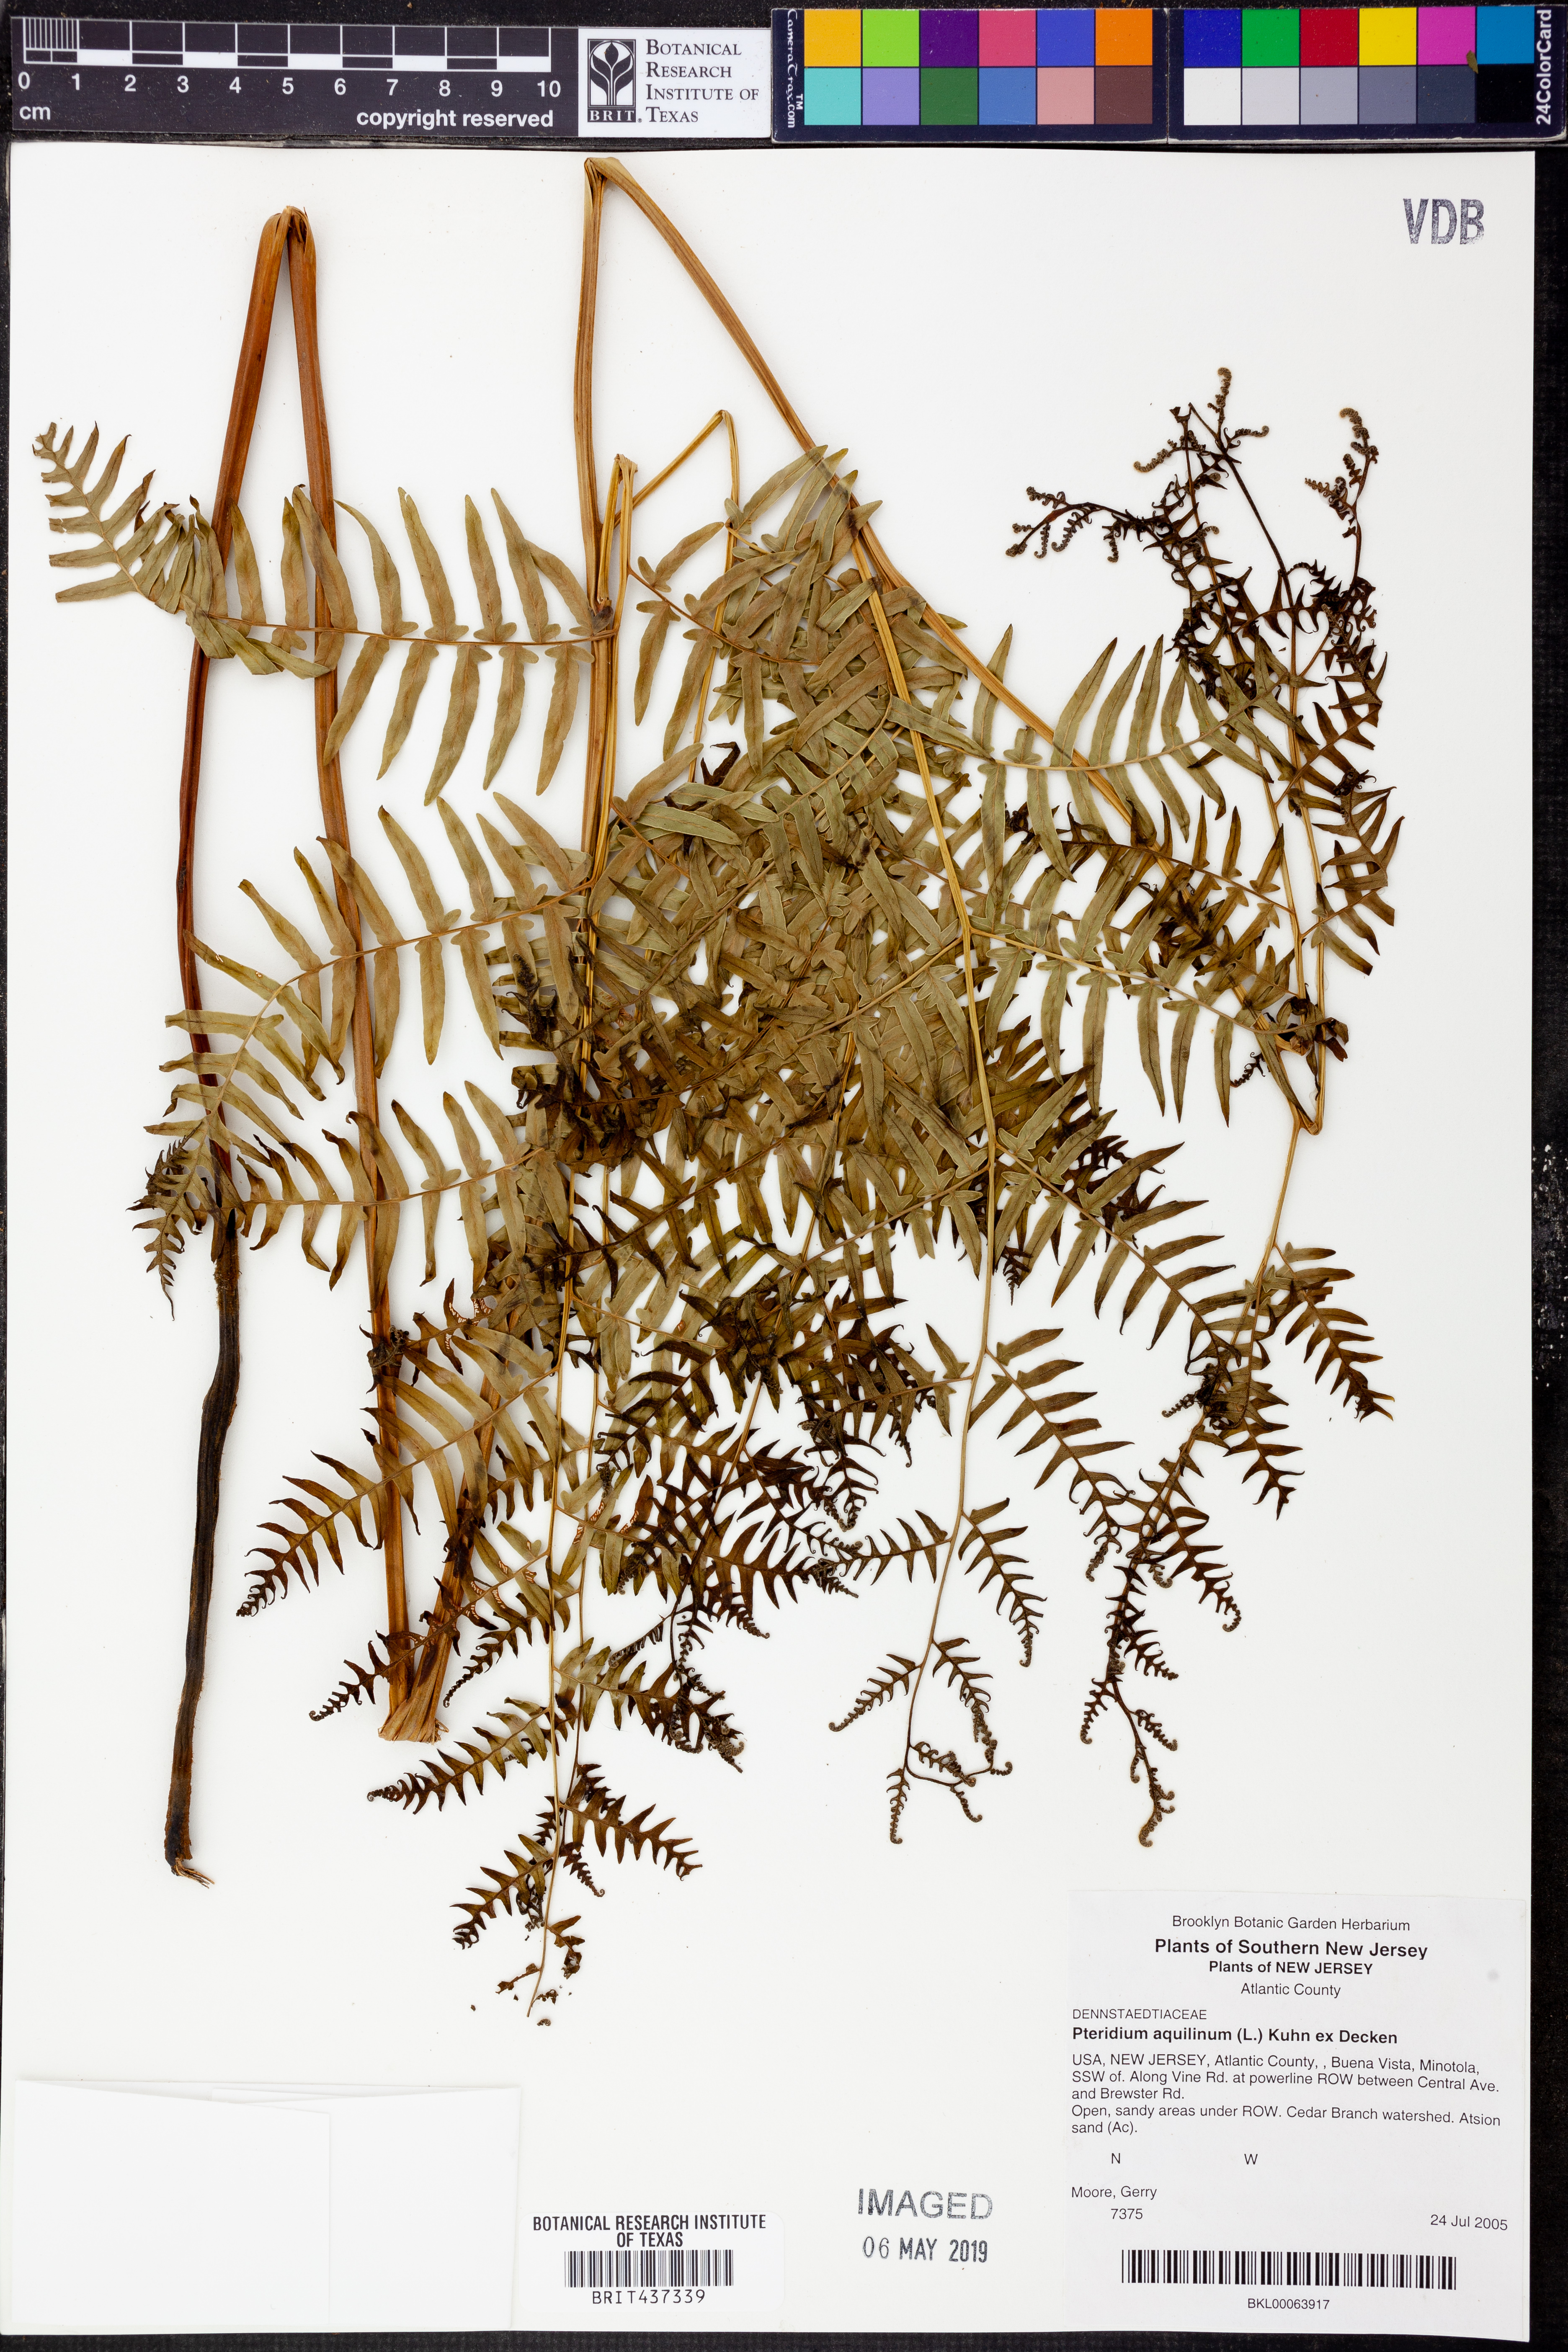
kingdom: Plantae
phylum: Tracheophyta
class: Polypodiopsida
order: Polypodiales
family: Dennstaedtiaceae
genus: Pteridium
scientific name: Pteridium aquilinum
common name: Bracken
